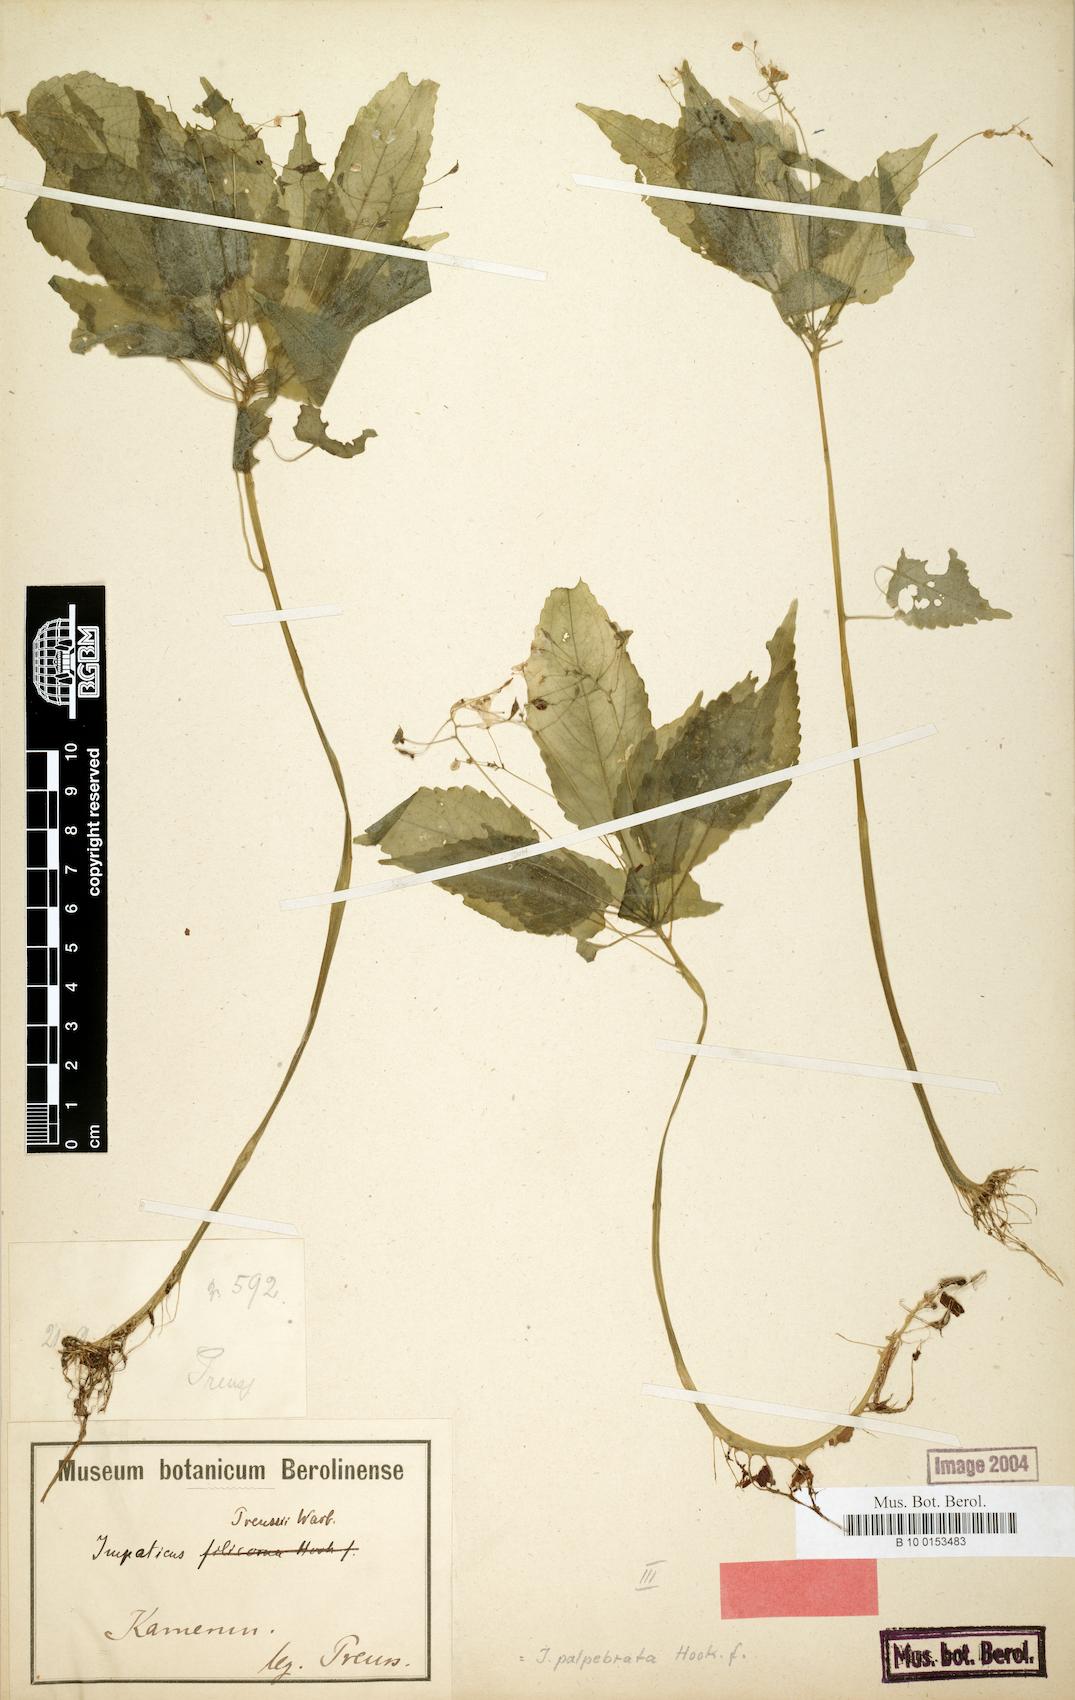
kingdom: Plantae
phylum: Tracheophyta
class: Magnoliopsida
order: Ericales
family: Balsaminaceae
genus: Impatiens
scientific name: Impatiens palpebrata
